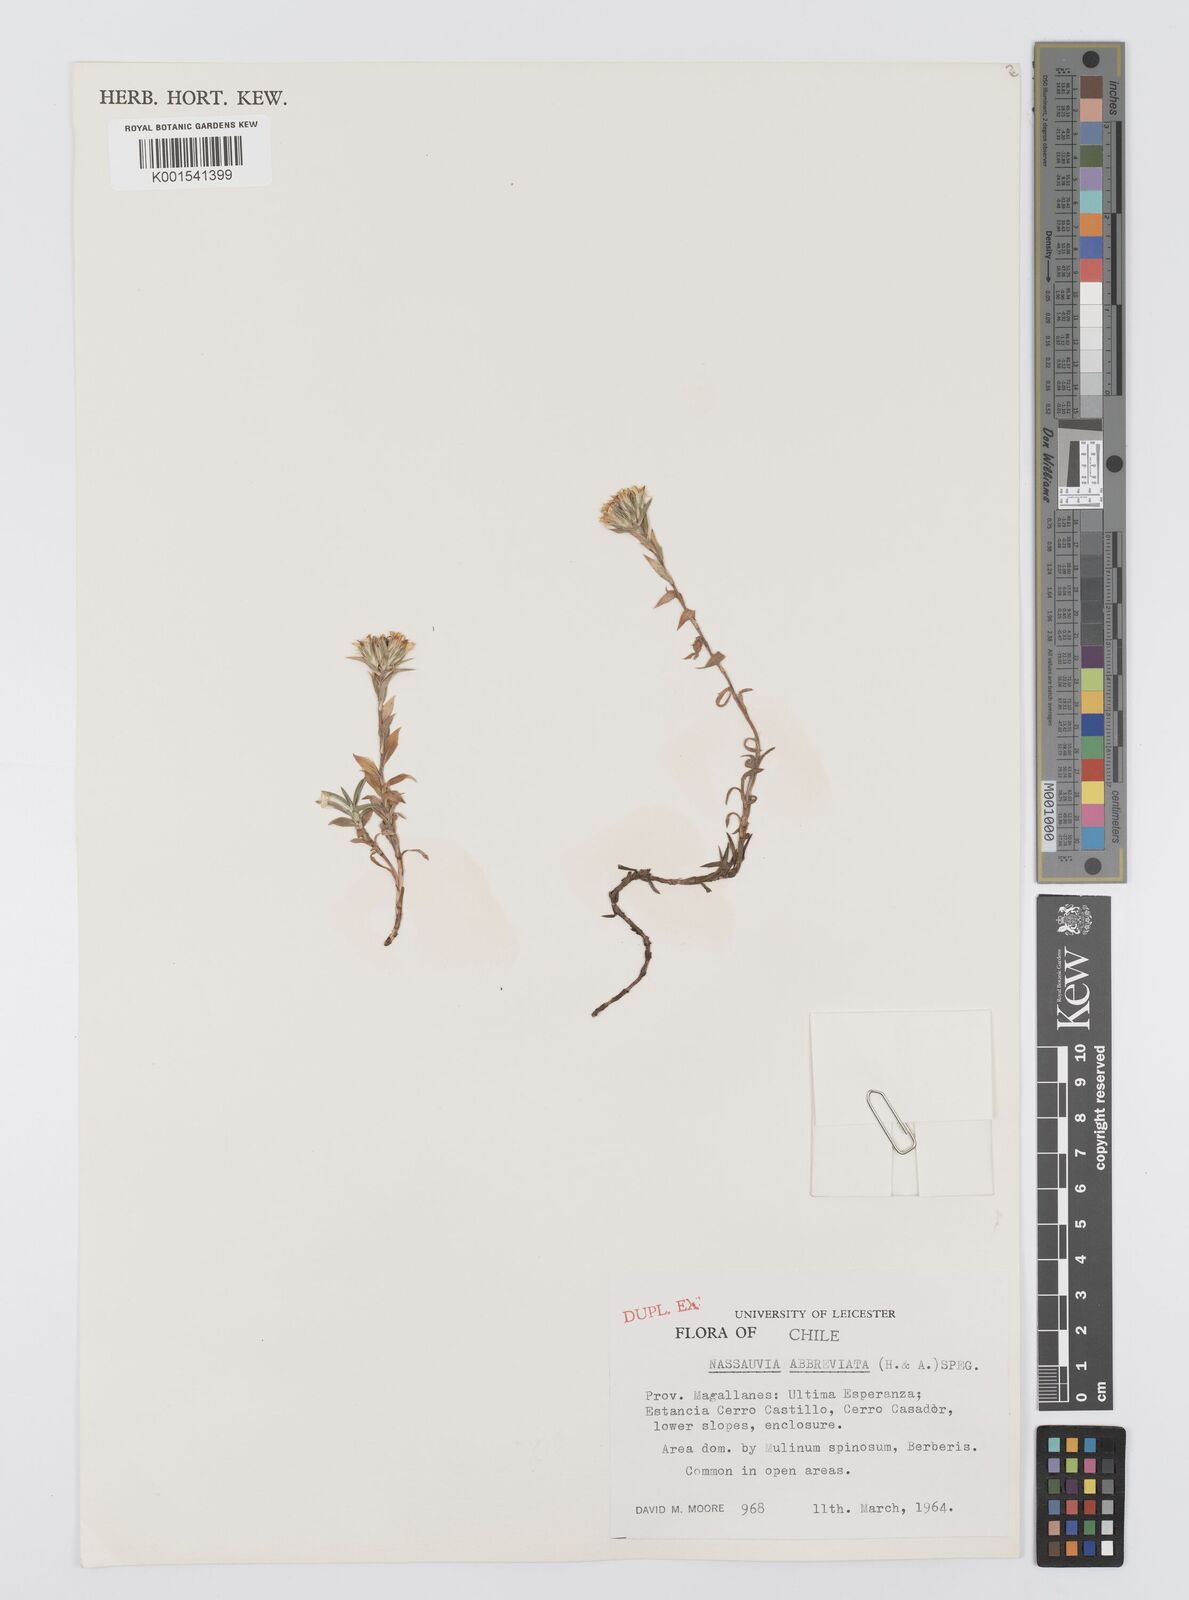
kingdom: Plantae
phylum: Tracheophyta
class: Magnoliopsida
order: Asterales
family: Asteraceae
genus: Nassauvia
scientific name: Nassauvia aculeata
